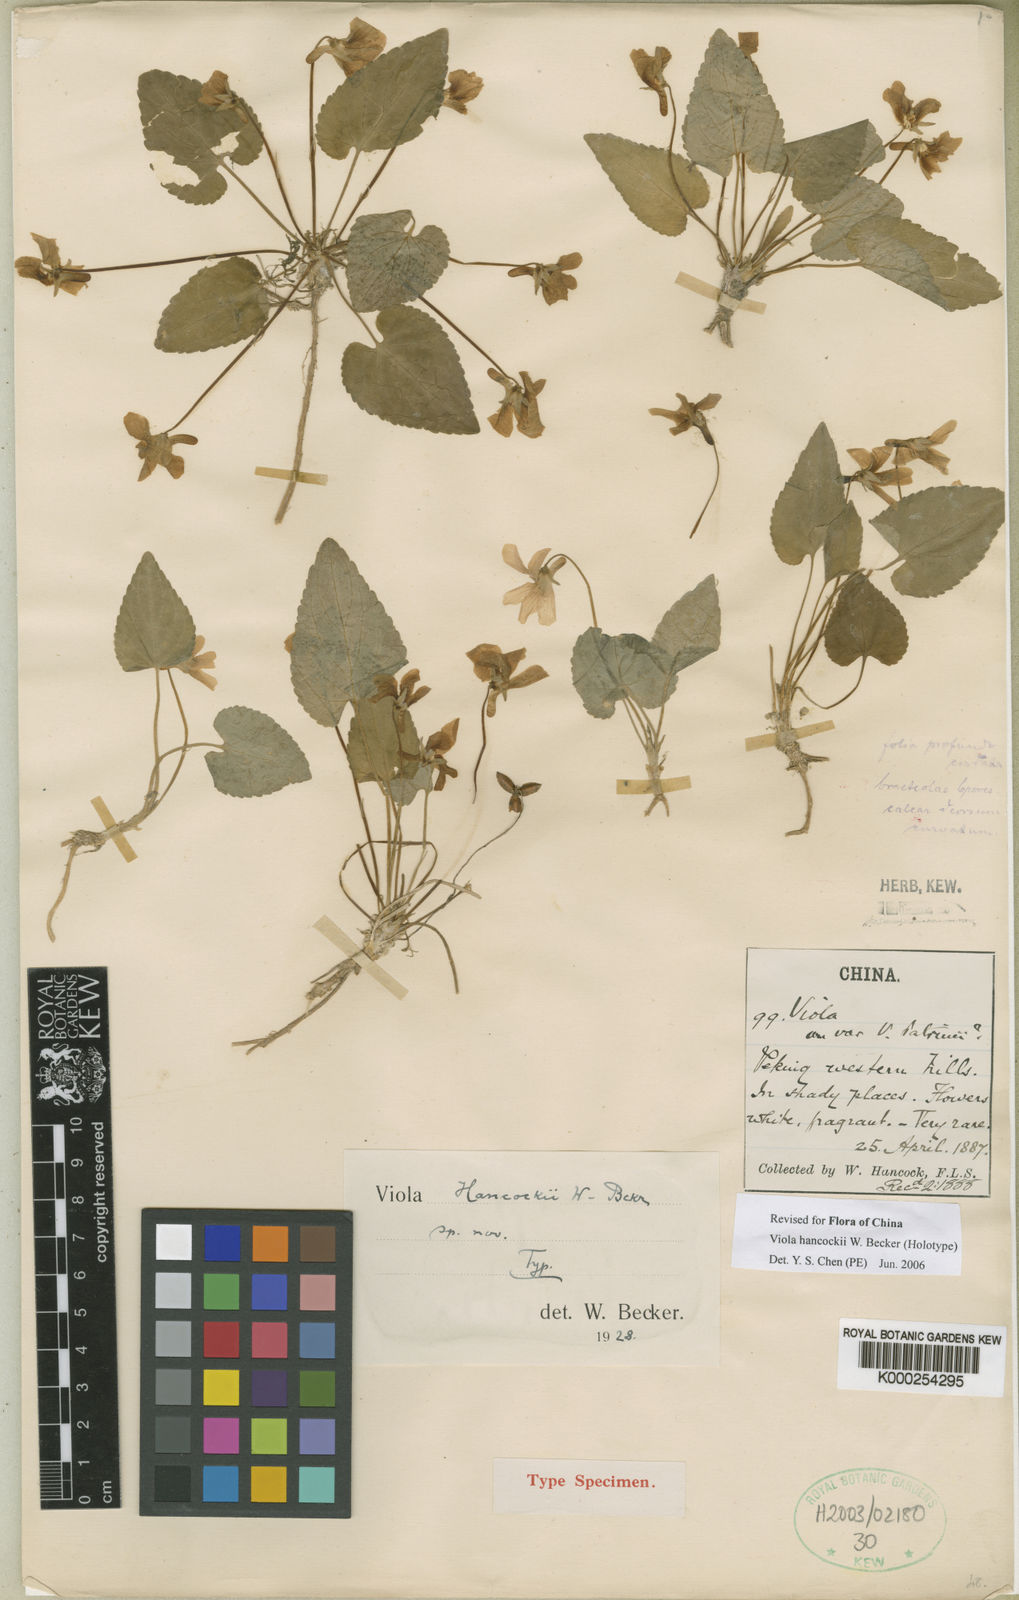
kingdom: Plantae
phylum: Tracheophyta
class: Magnoliopsida
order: Malpighiales
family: Violaceae
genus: Viola
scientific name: Viola hancockii
